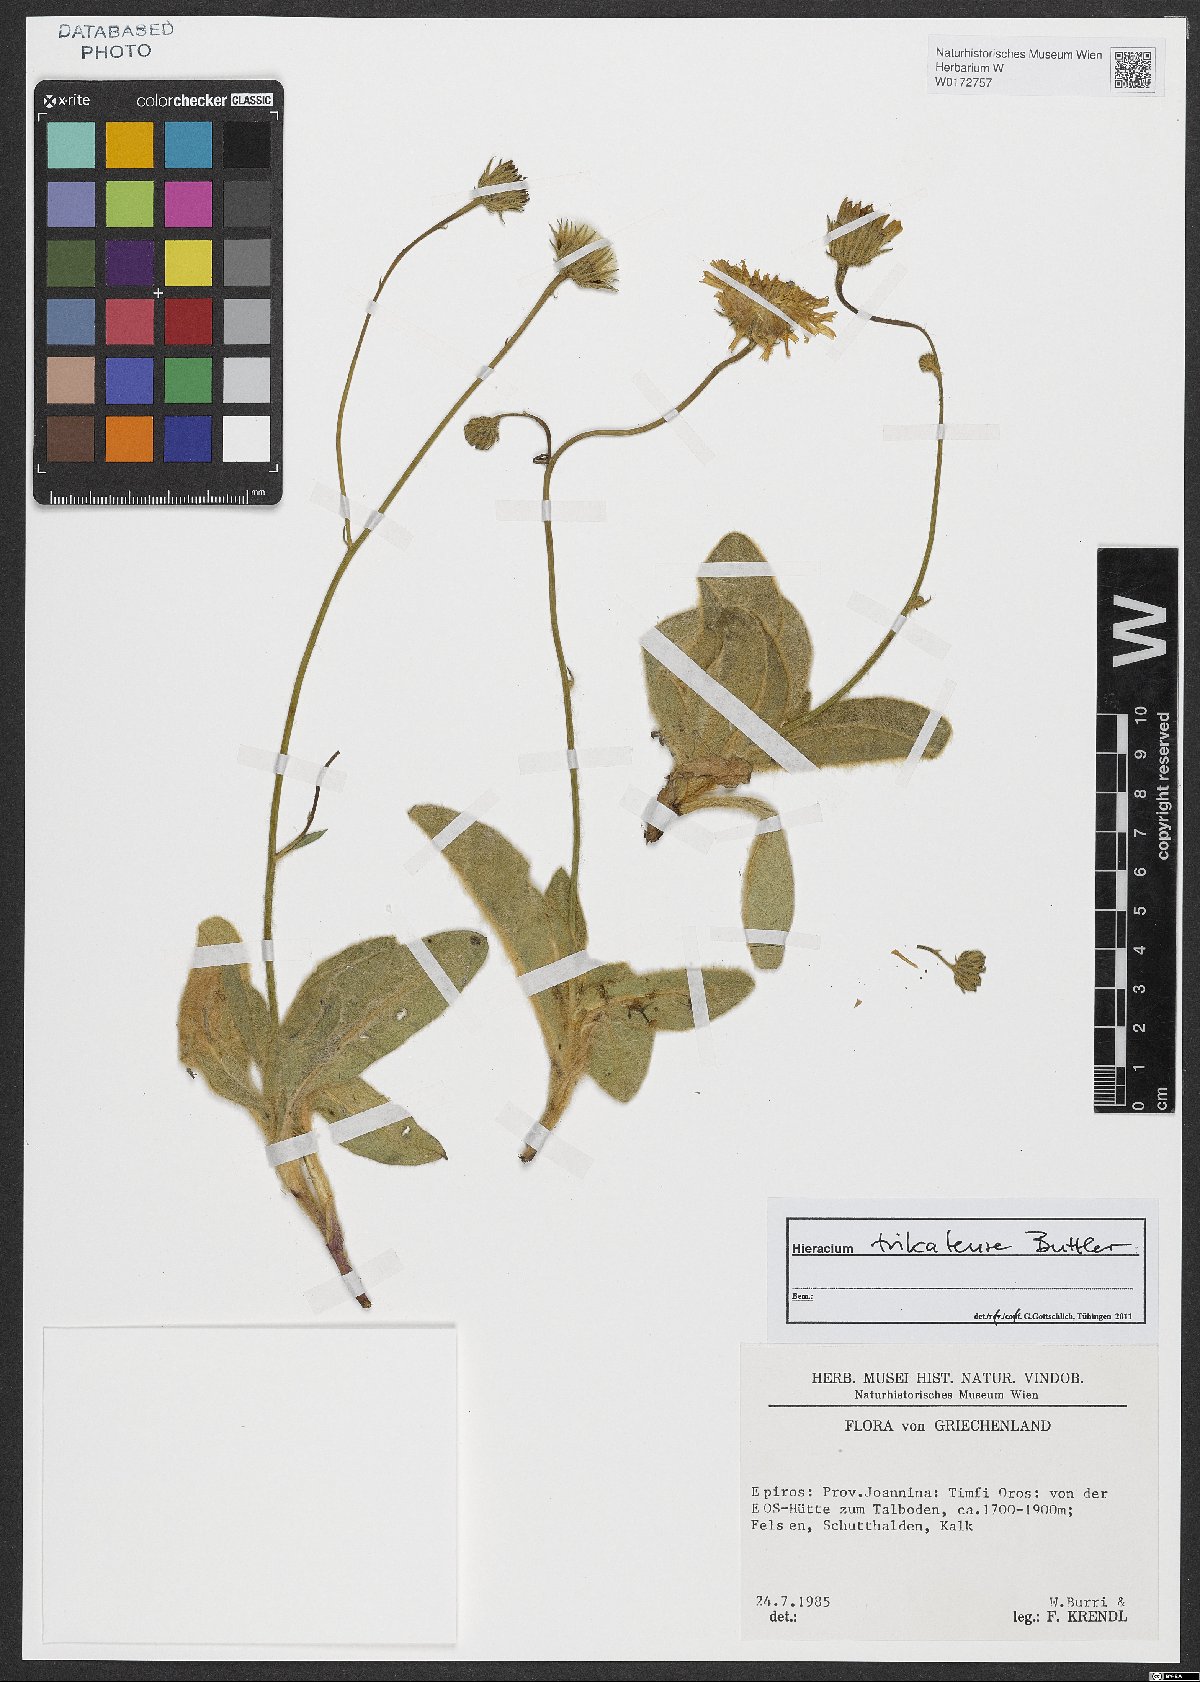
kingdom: Plantae
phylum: Tracheophyta
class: Magnoliopsida
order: Asterales
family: Asteraceae
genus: Hieracium
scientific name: Hieracium trikalense
